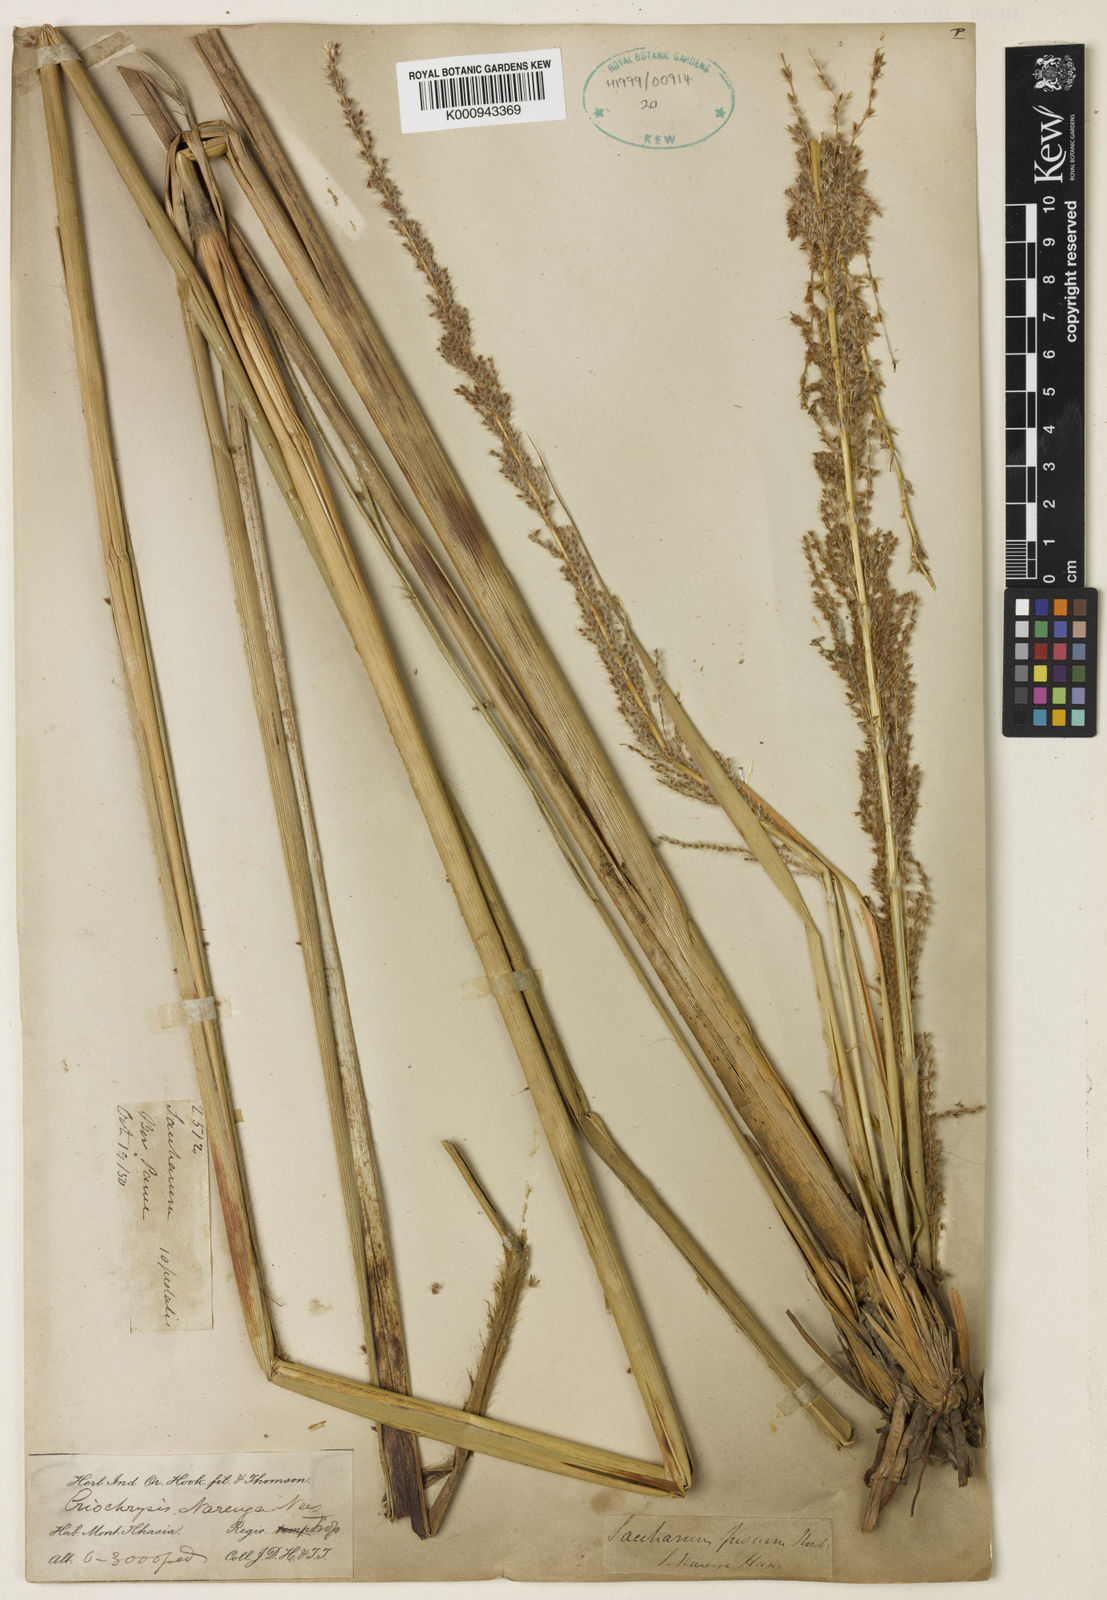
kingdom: Plantae
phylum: Tracheophyta
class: Liliopsida
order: Poales
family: Poaceae
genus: Narenga
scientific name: Narenga porphyrocoma
